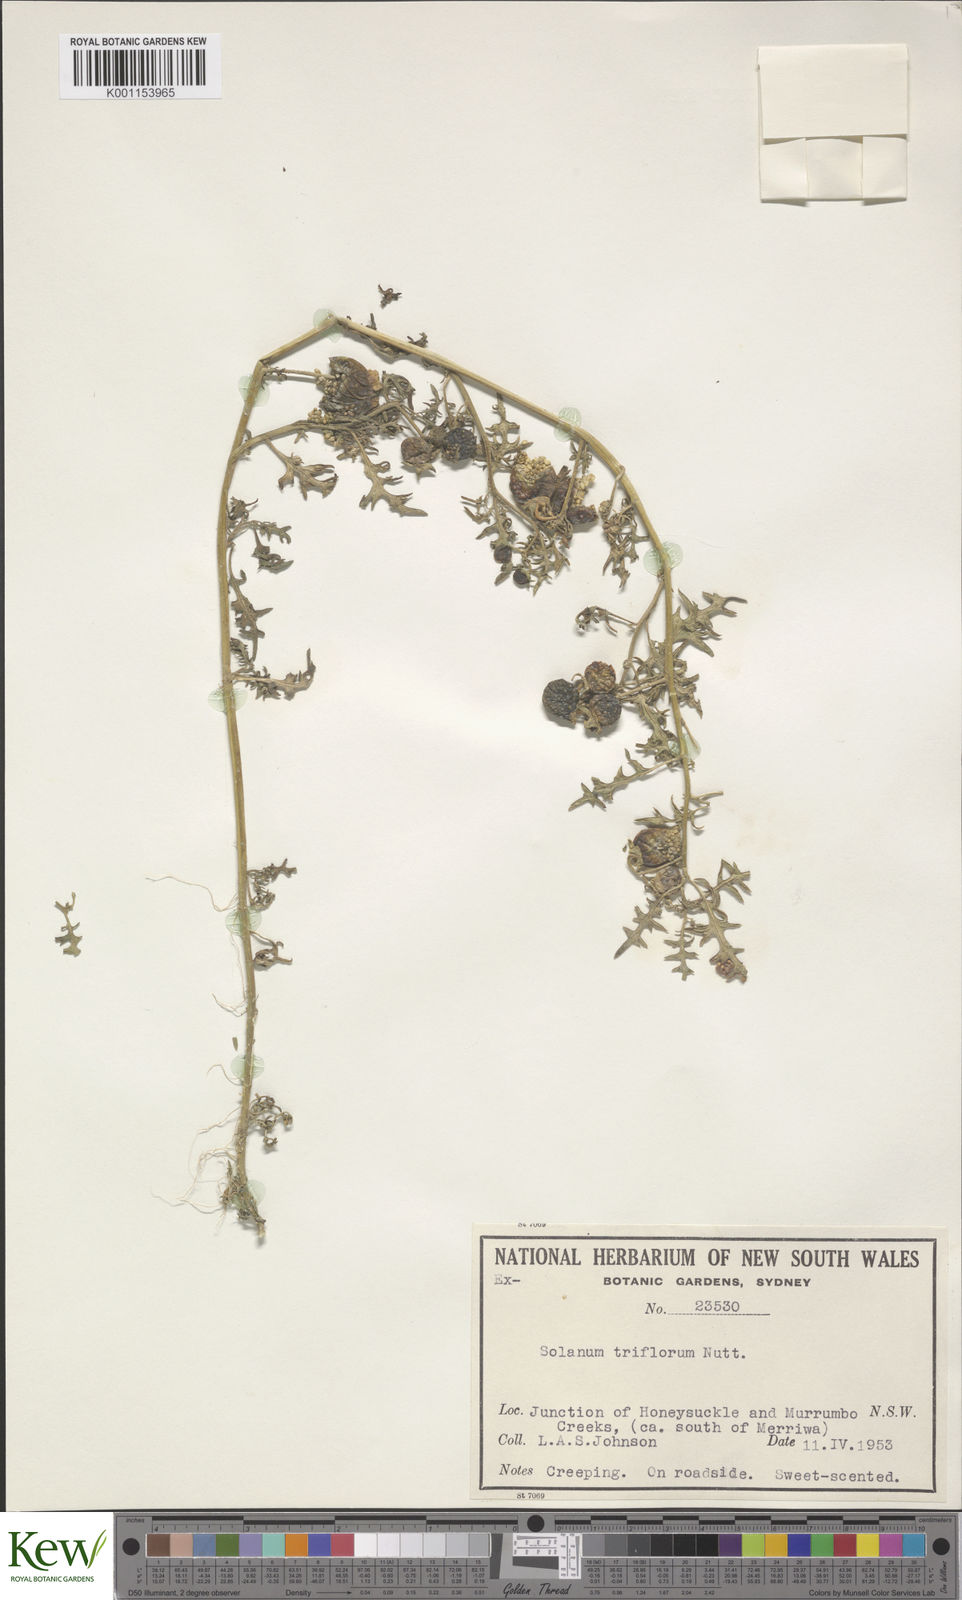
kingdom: Plantae
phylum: Tracheophyta
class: Magnoliopsida
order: Solanales
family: Solanaceae
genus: Solanum
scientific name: Solanum triflorum
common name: Small nightshade
